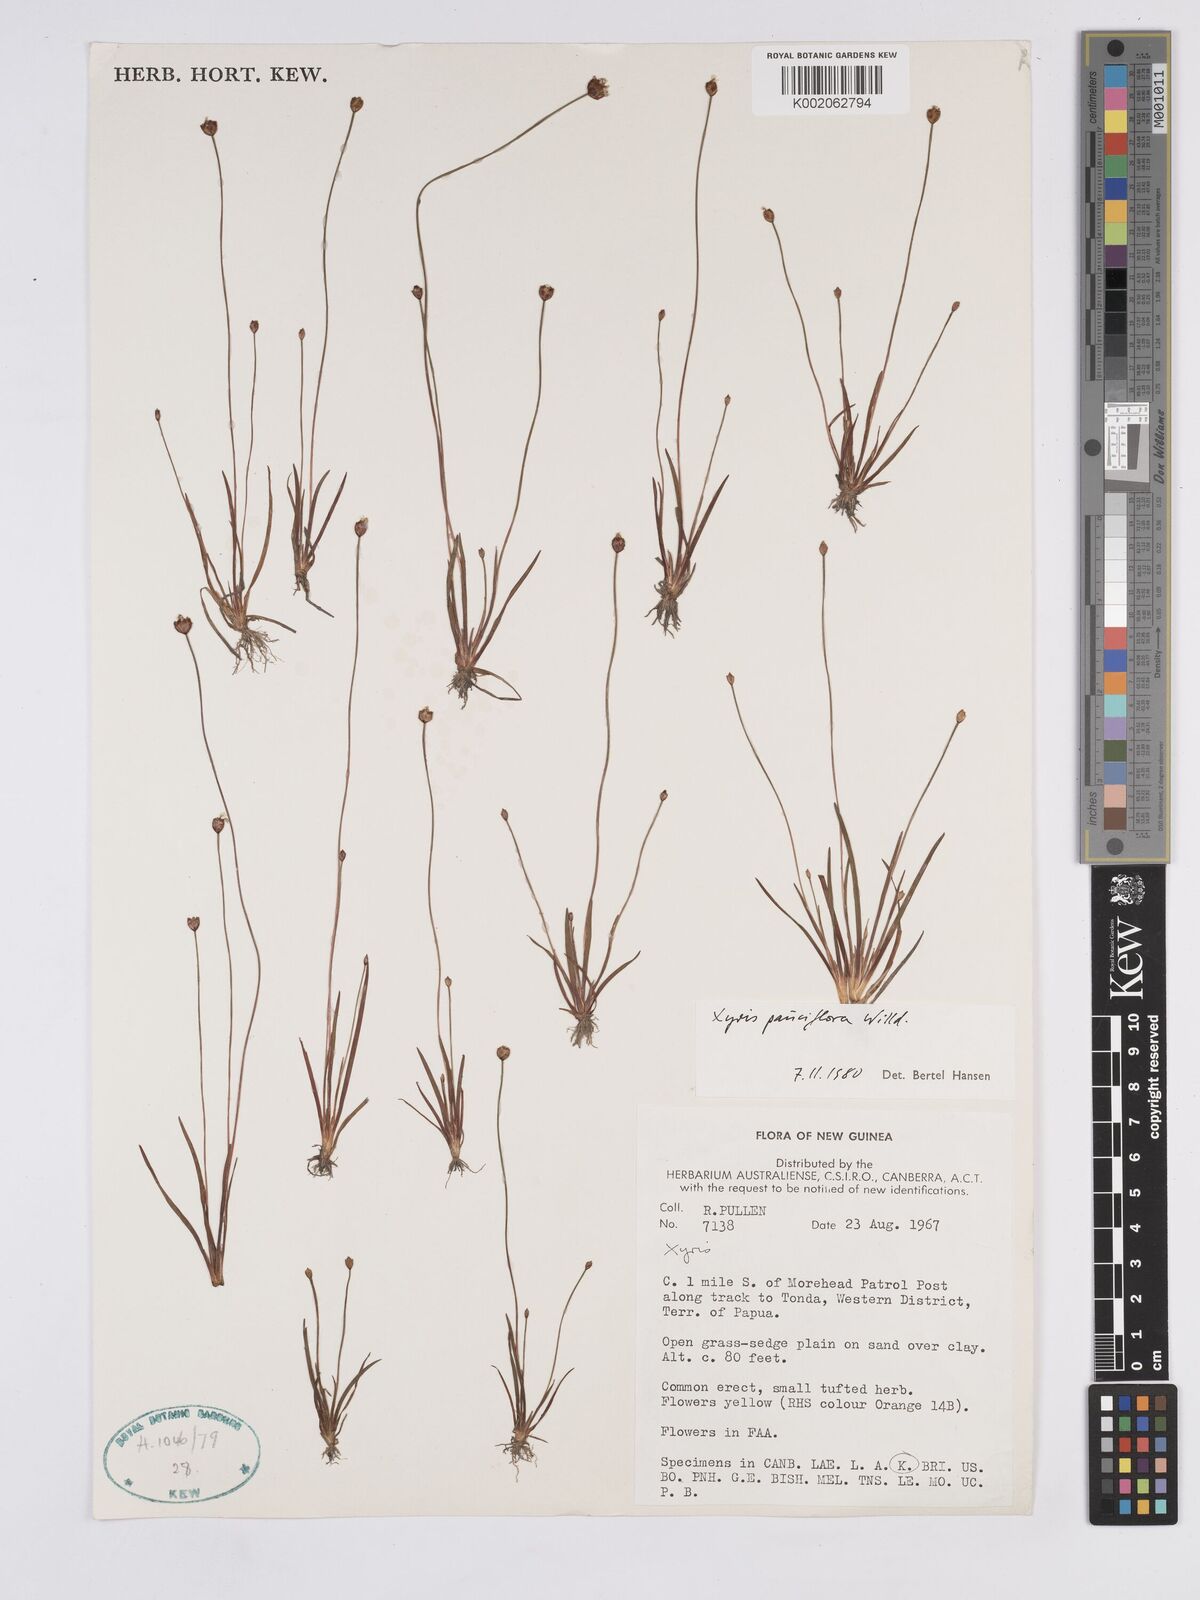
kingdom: Plantae
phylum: Tracheophyta
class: Liliopsida
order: Poales
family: Xyridaceae
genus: Xyris
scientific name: Xyris pauciflora
